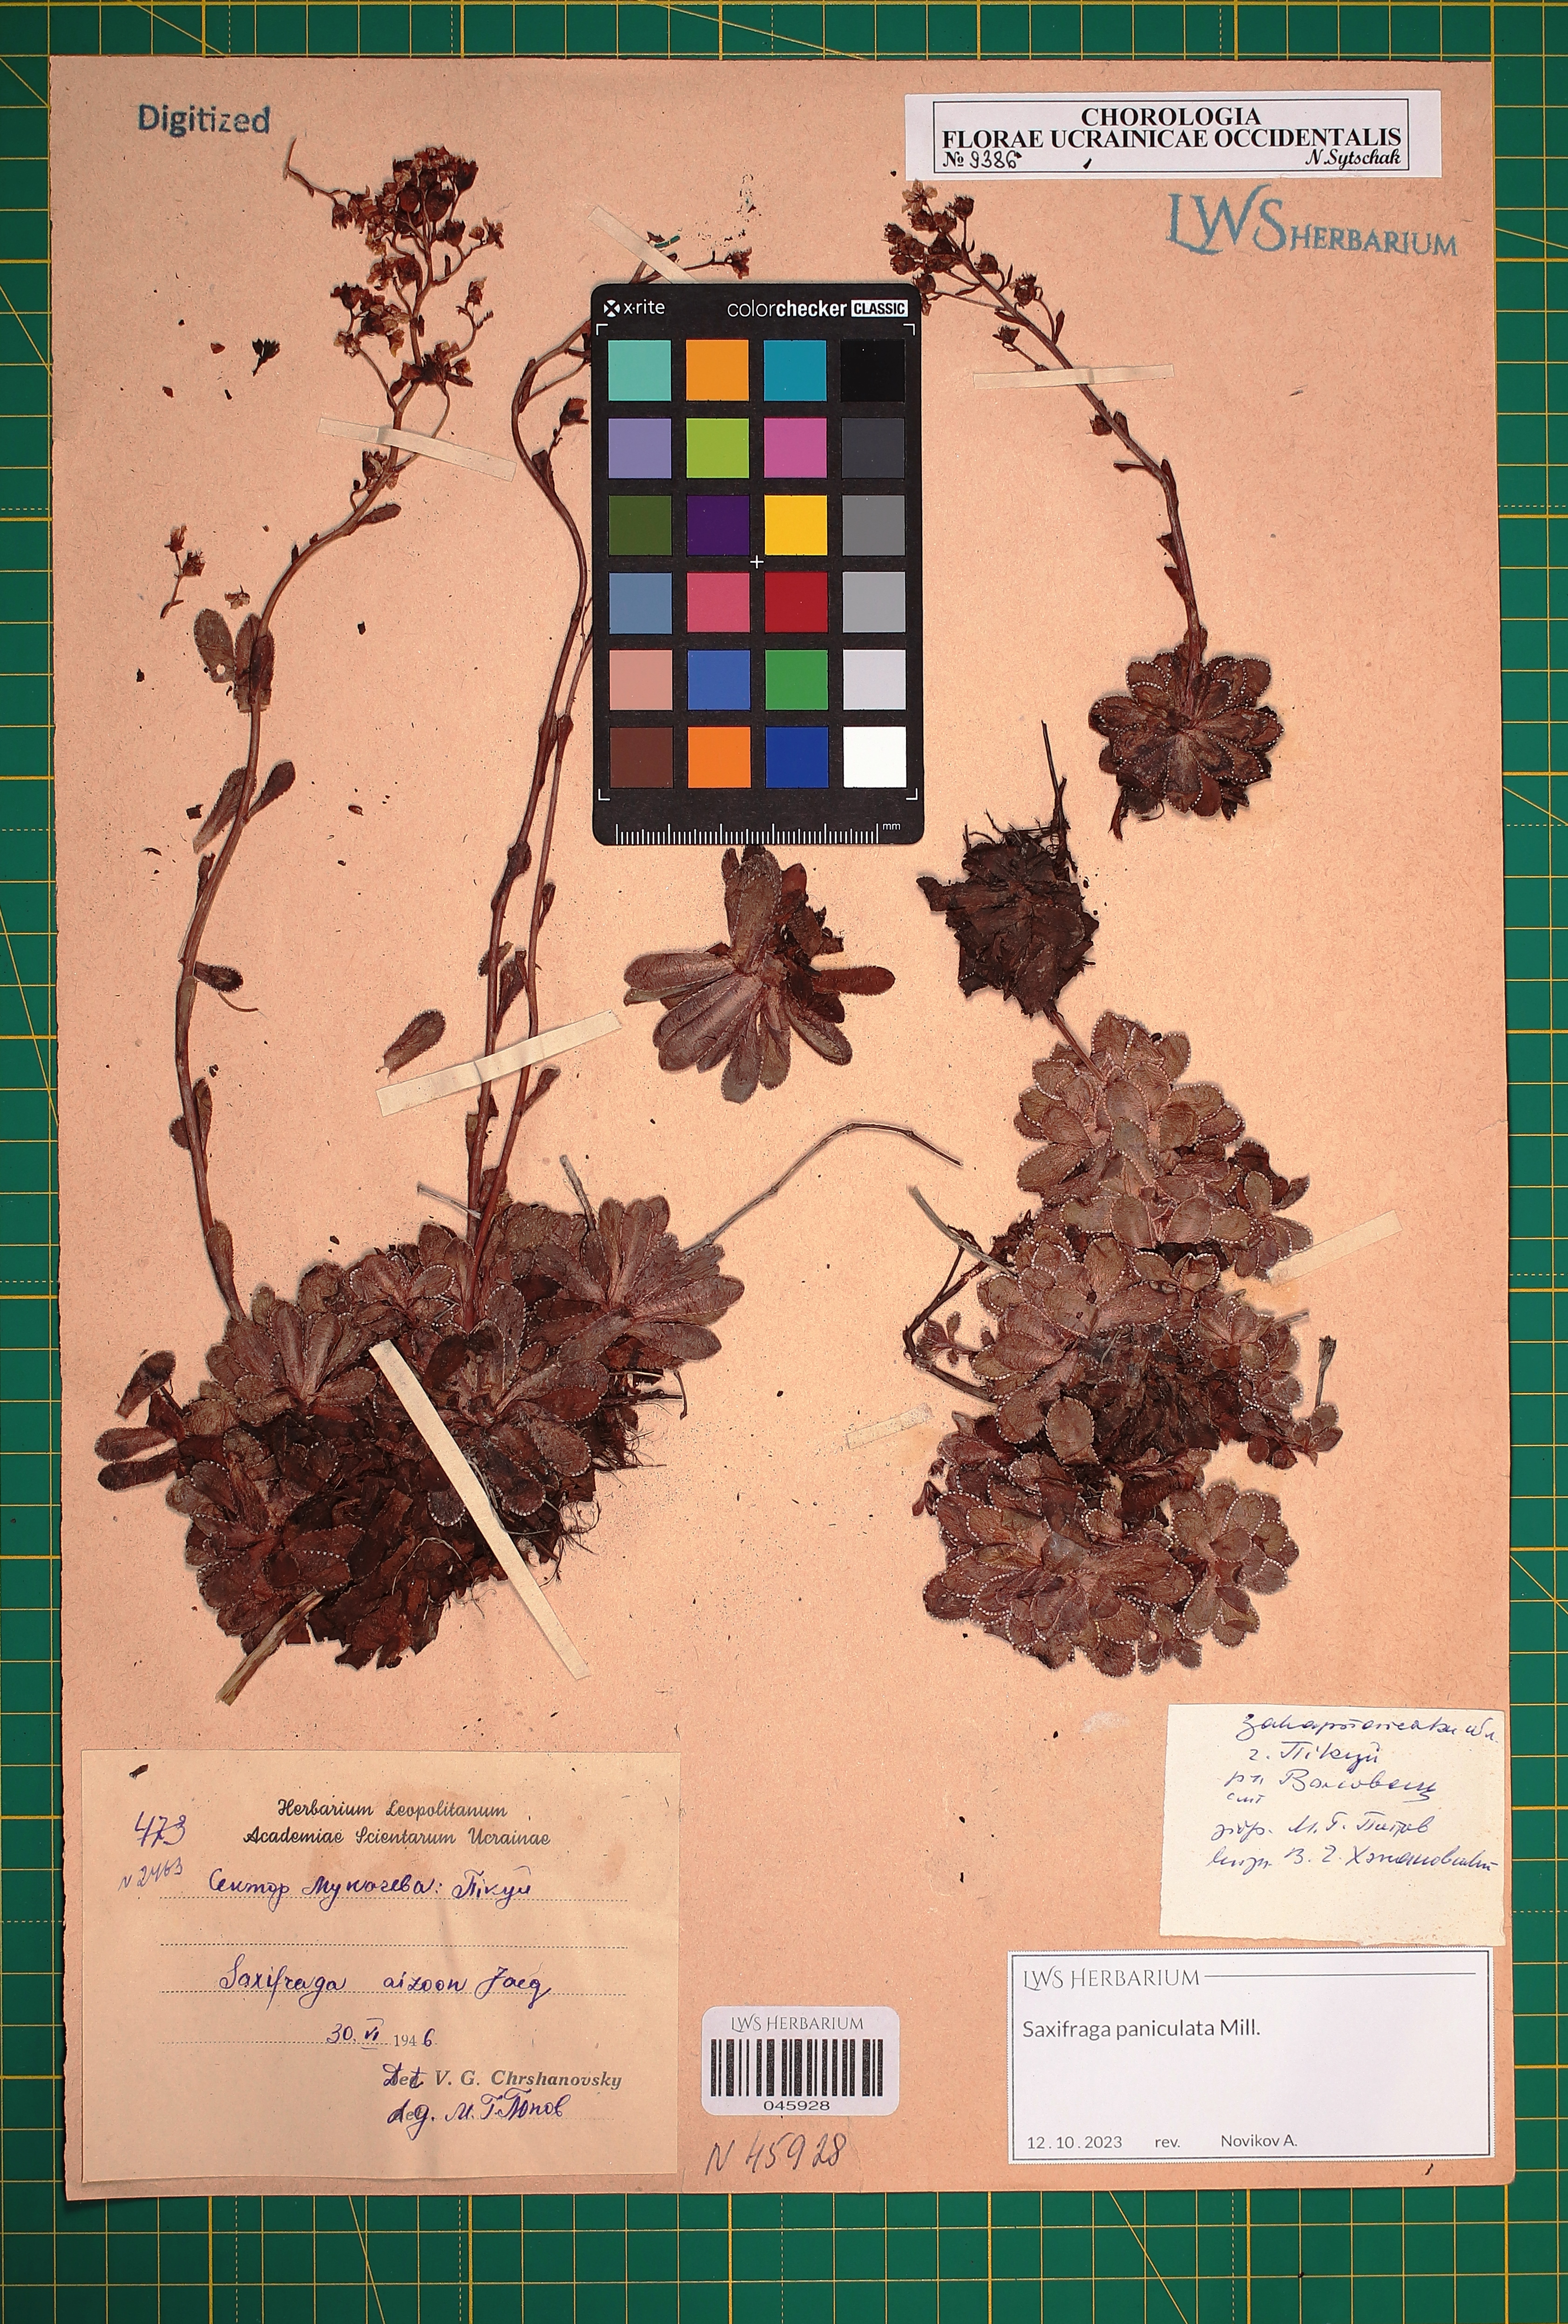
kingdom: Plantae
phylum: Tracheophyta
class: Magnoliopsida
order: Saxifragales
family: Saxifragaceae
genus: Saxifraga
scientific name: Saxifraga paniculata
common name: Livelong saxifrage
